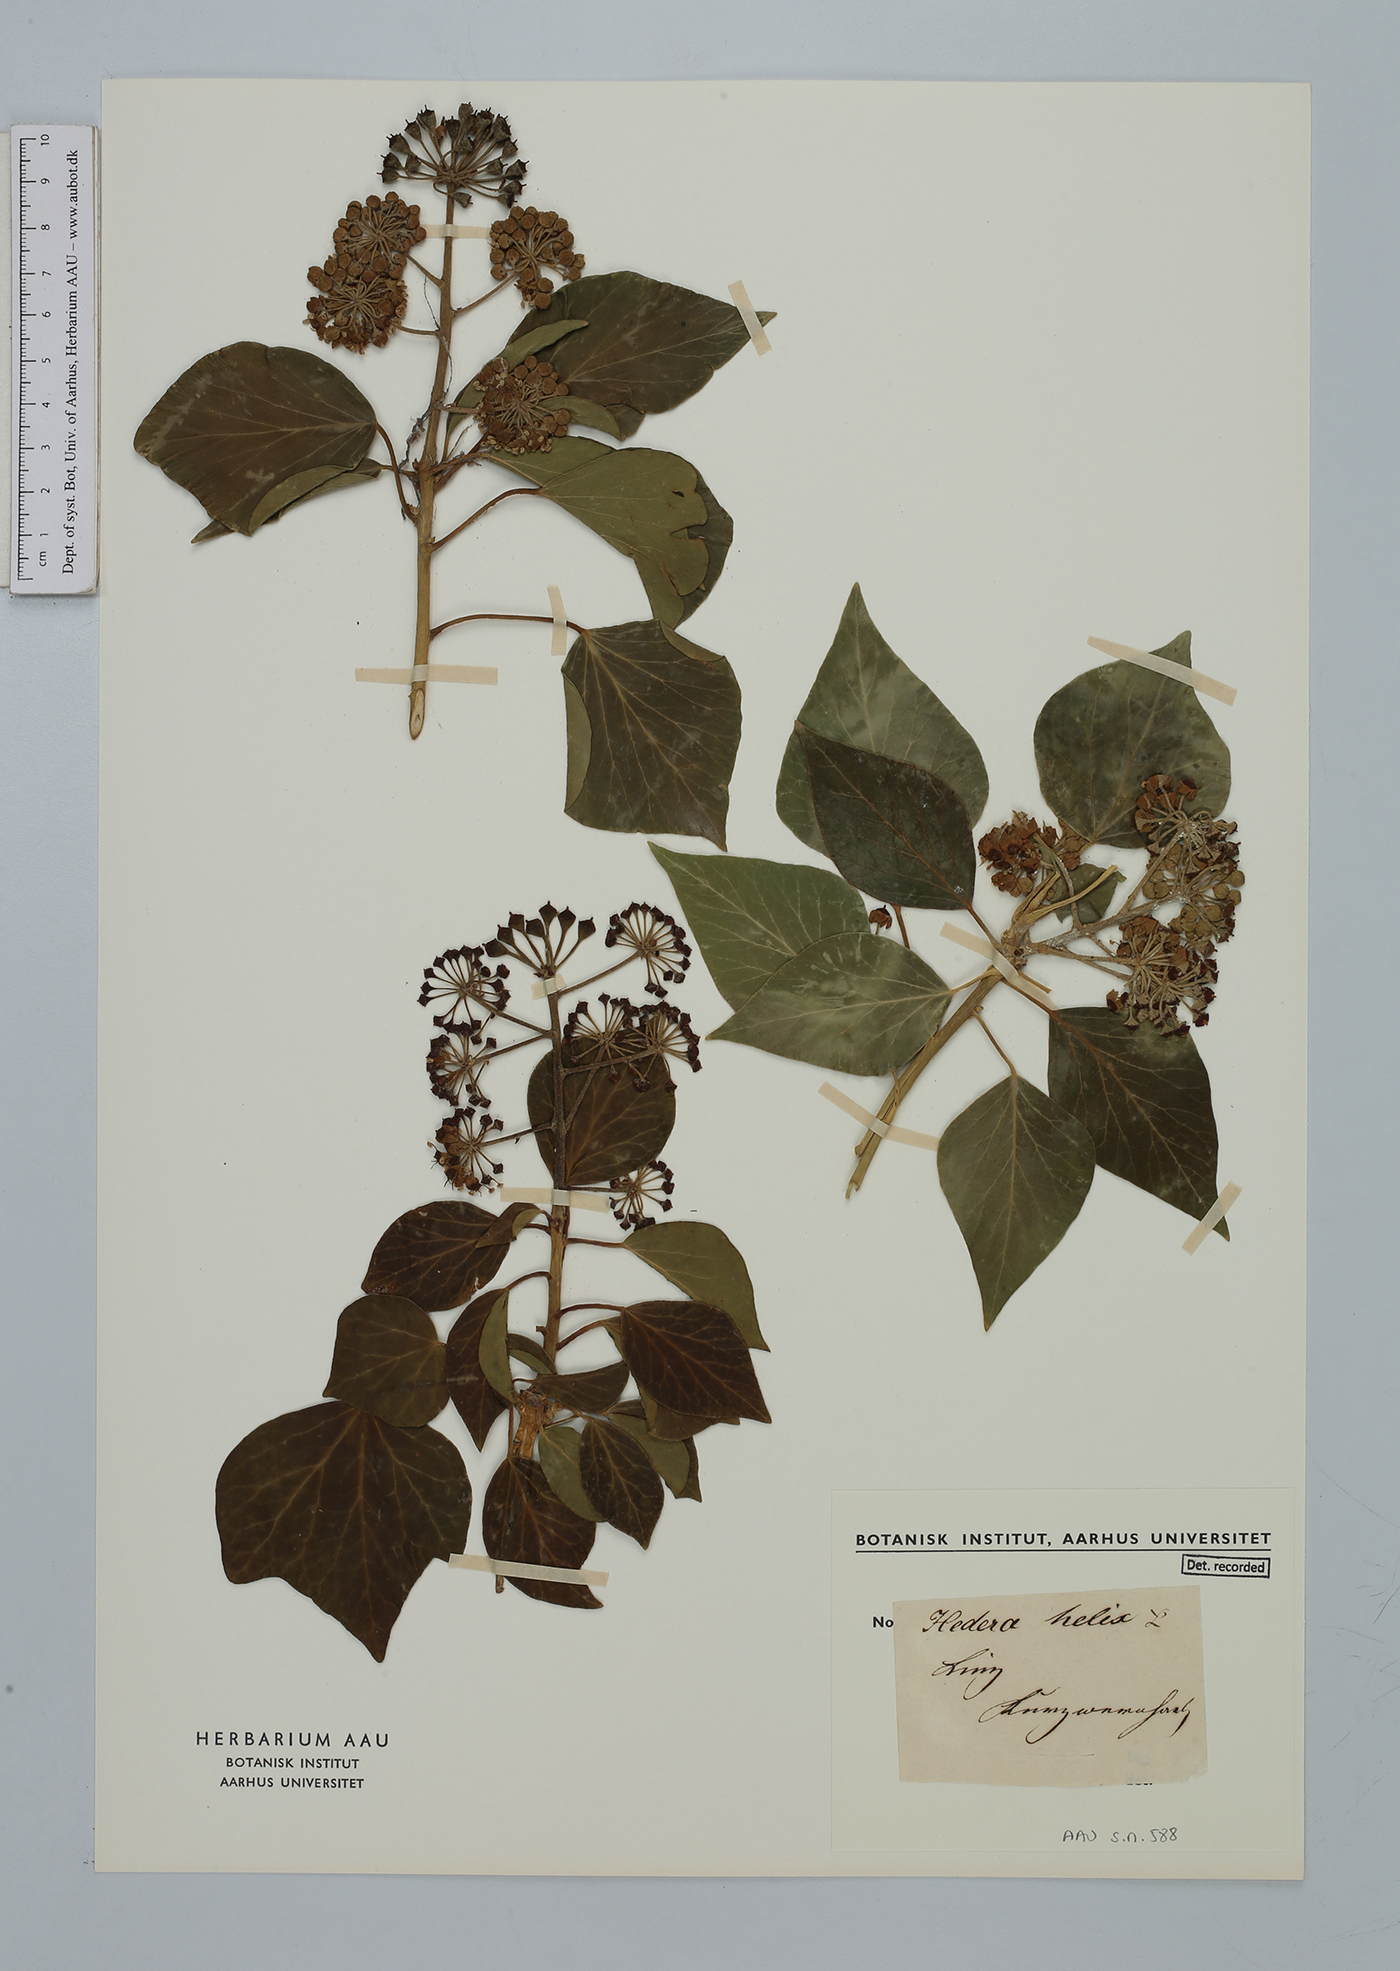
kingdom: Plantae
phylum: Tracheophyta
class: Magnoliopsida
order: Apiales
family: Araliaceae
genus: Hedera
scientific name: Hedera helix
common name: Ivy
